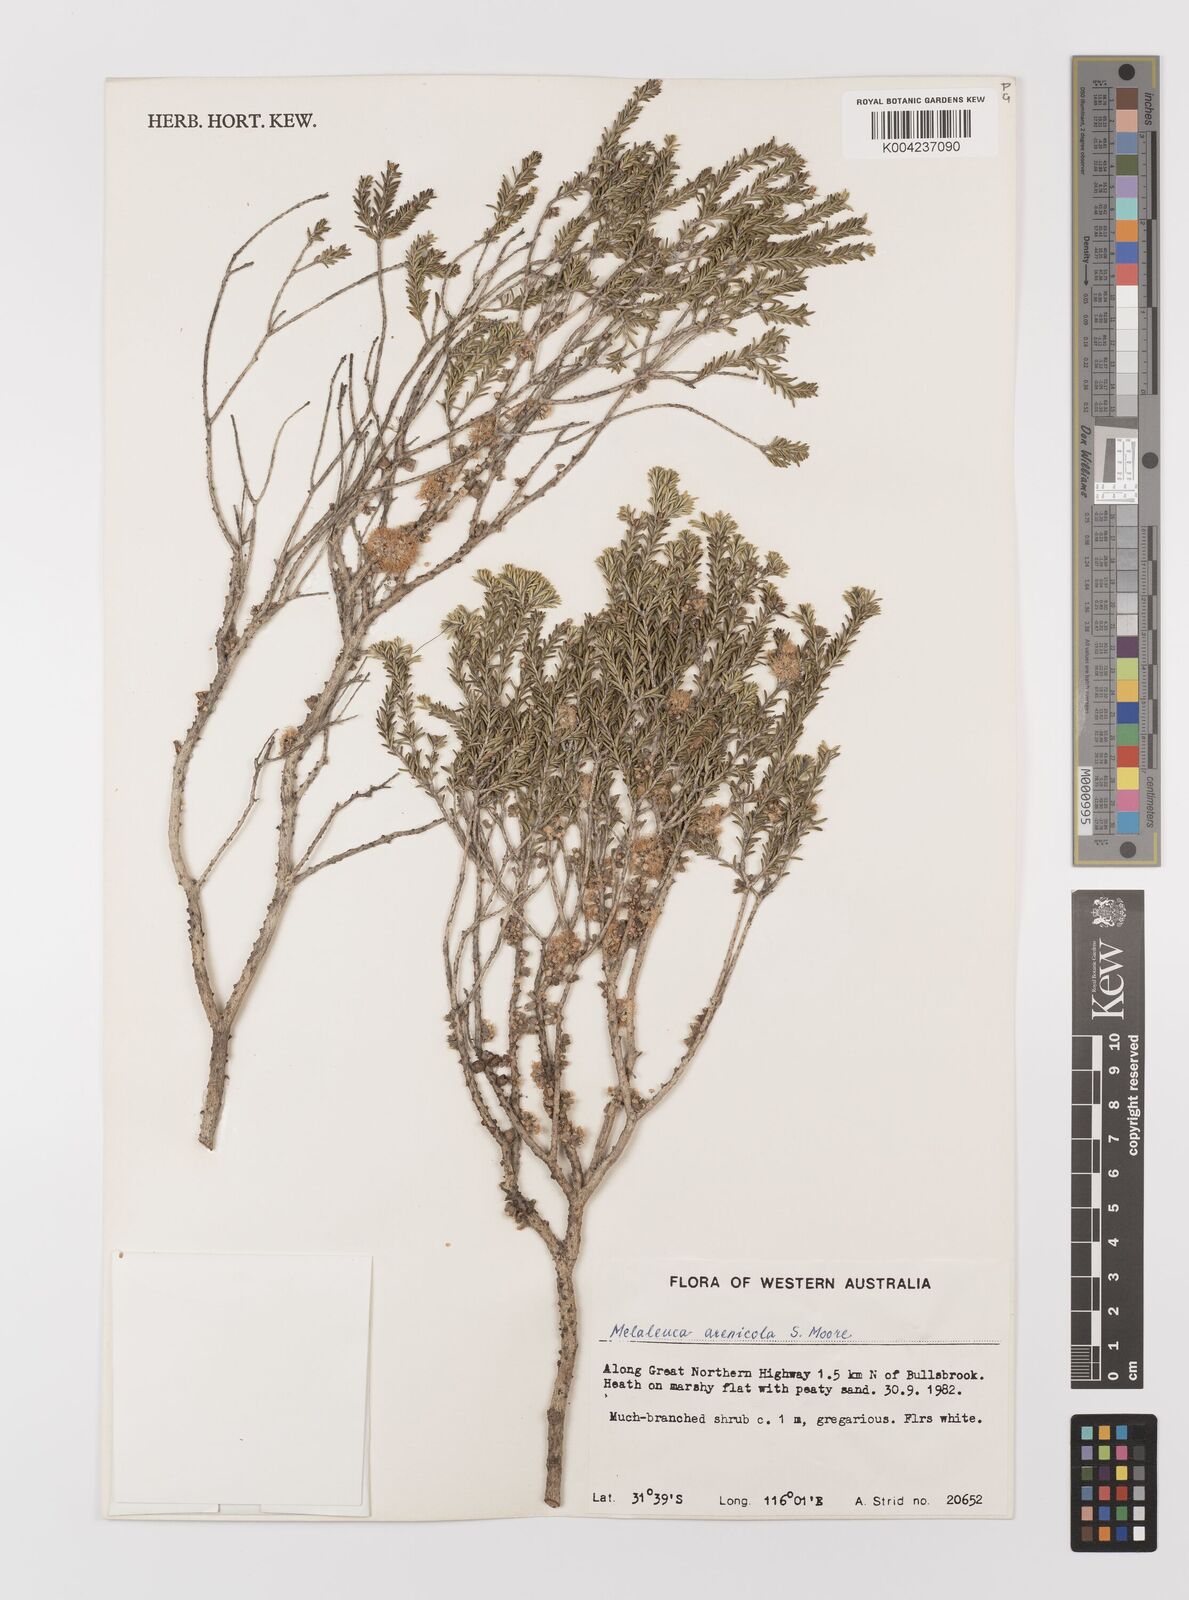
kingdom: Plantae
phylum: Tracheophyta
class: Magnoliopsida
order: Myrtales
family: Myrtaceae
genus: Melaleuca
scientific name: Melaleuca arenicola
